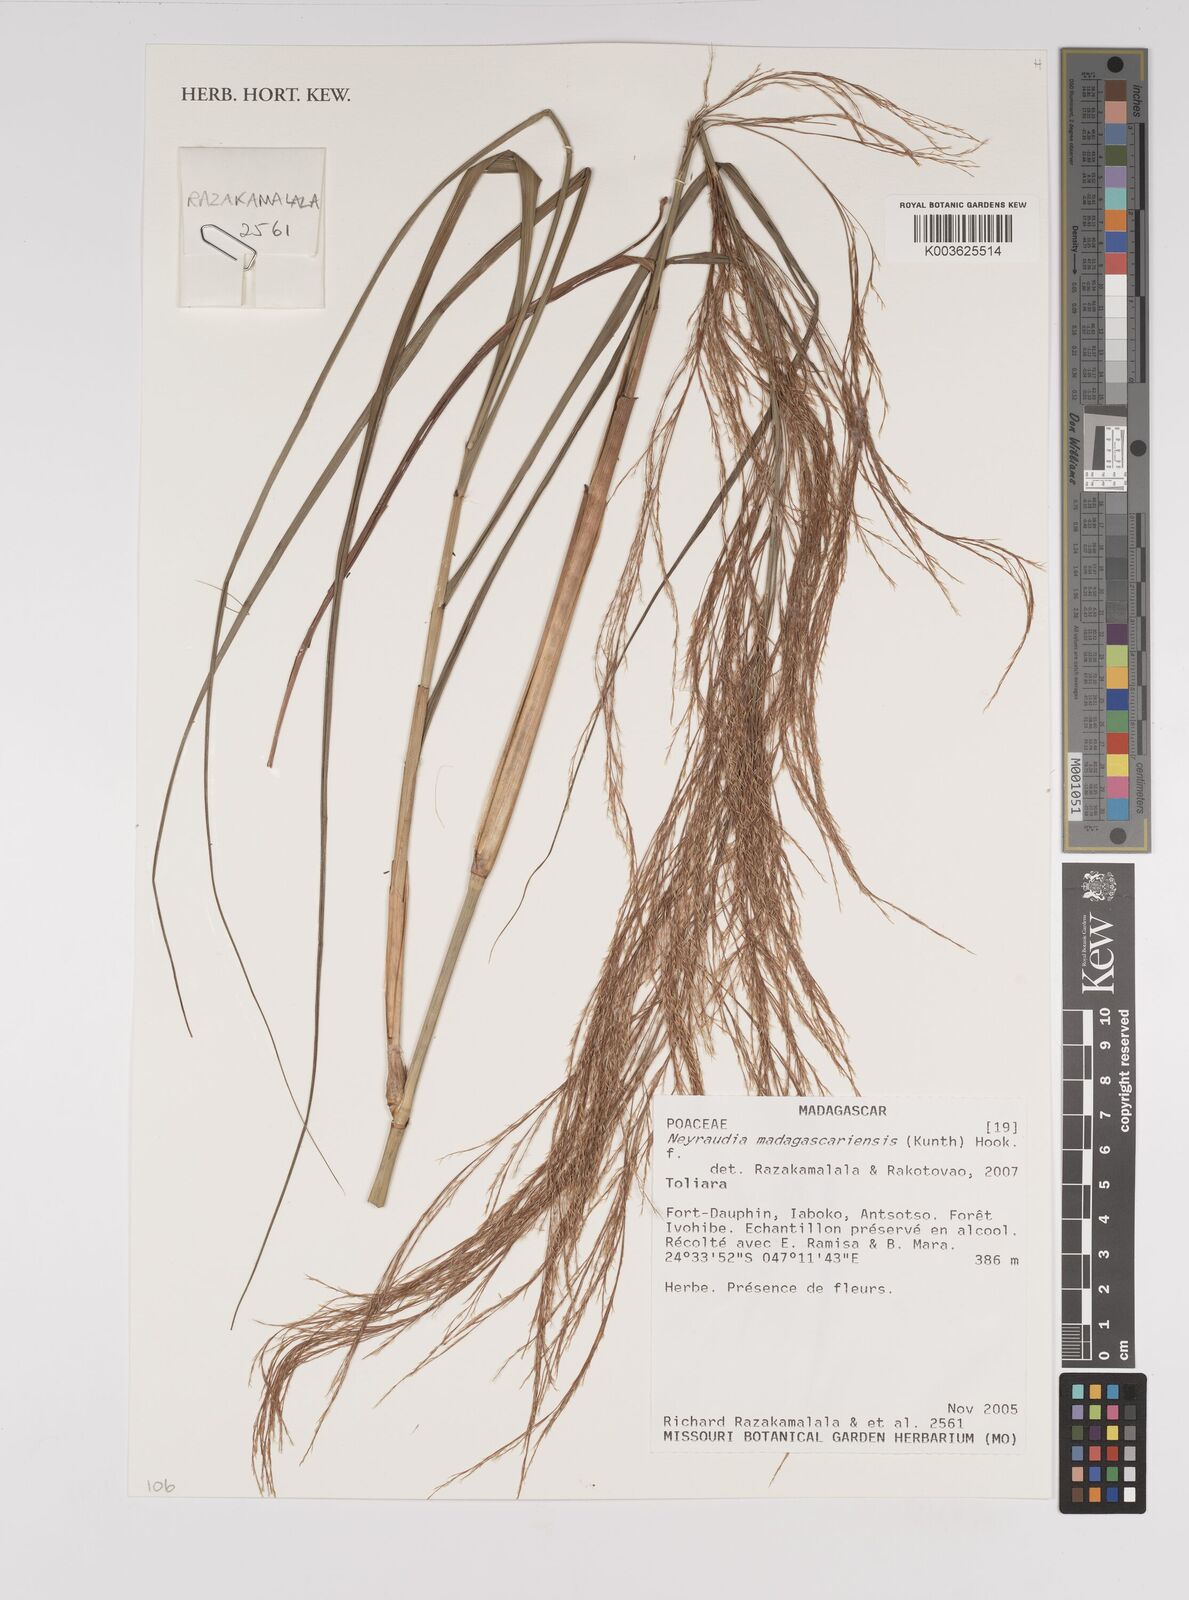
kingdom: Plantae
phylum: Tracheophyta
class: Liliopsida
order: Poales
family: Poaceae
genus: Neyraudia
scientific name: Neyraudia arundinacea
